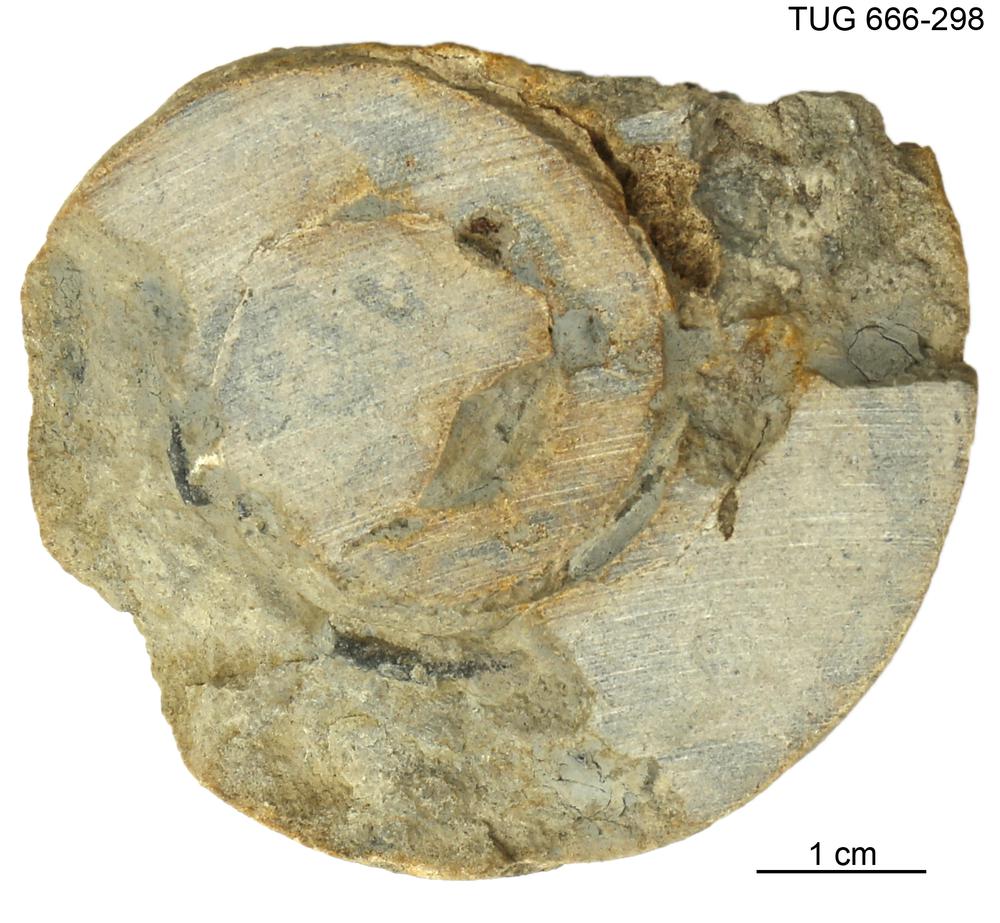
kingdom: Animalia
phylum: Mollusca
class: Cephalopoda
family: Trocholitidae
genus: Discoceras
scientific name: Discoceras
